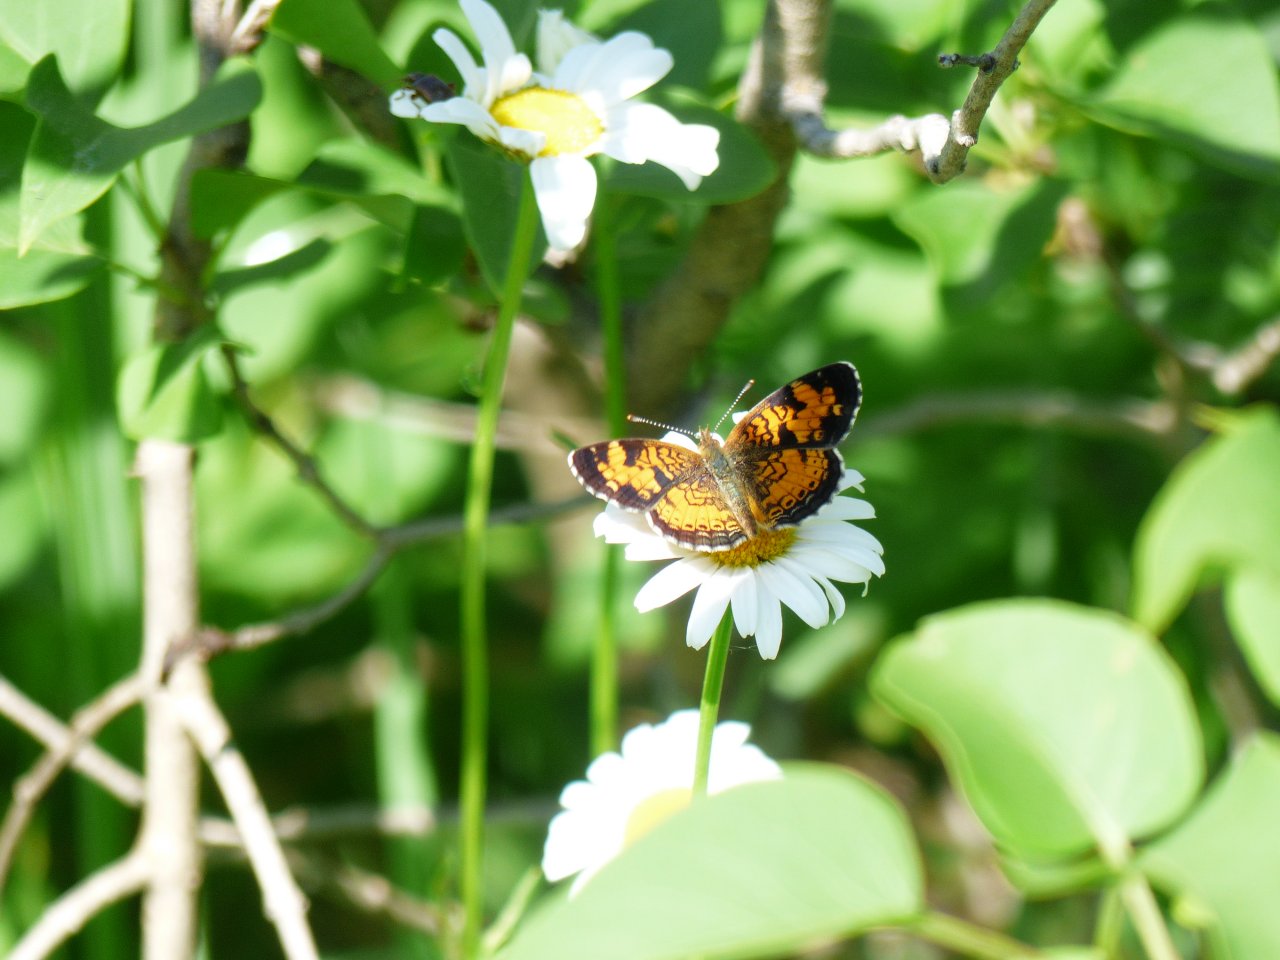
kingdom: Animalia
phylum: Arthropoda
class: Insecta
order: Lepidoptera
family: Nymphalidae
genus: Phyciodes
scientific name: Phyciodes tharos
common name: Northern Crescent
